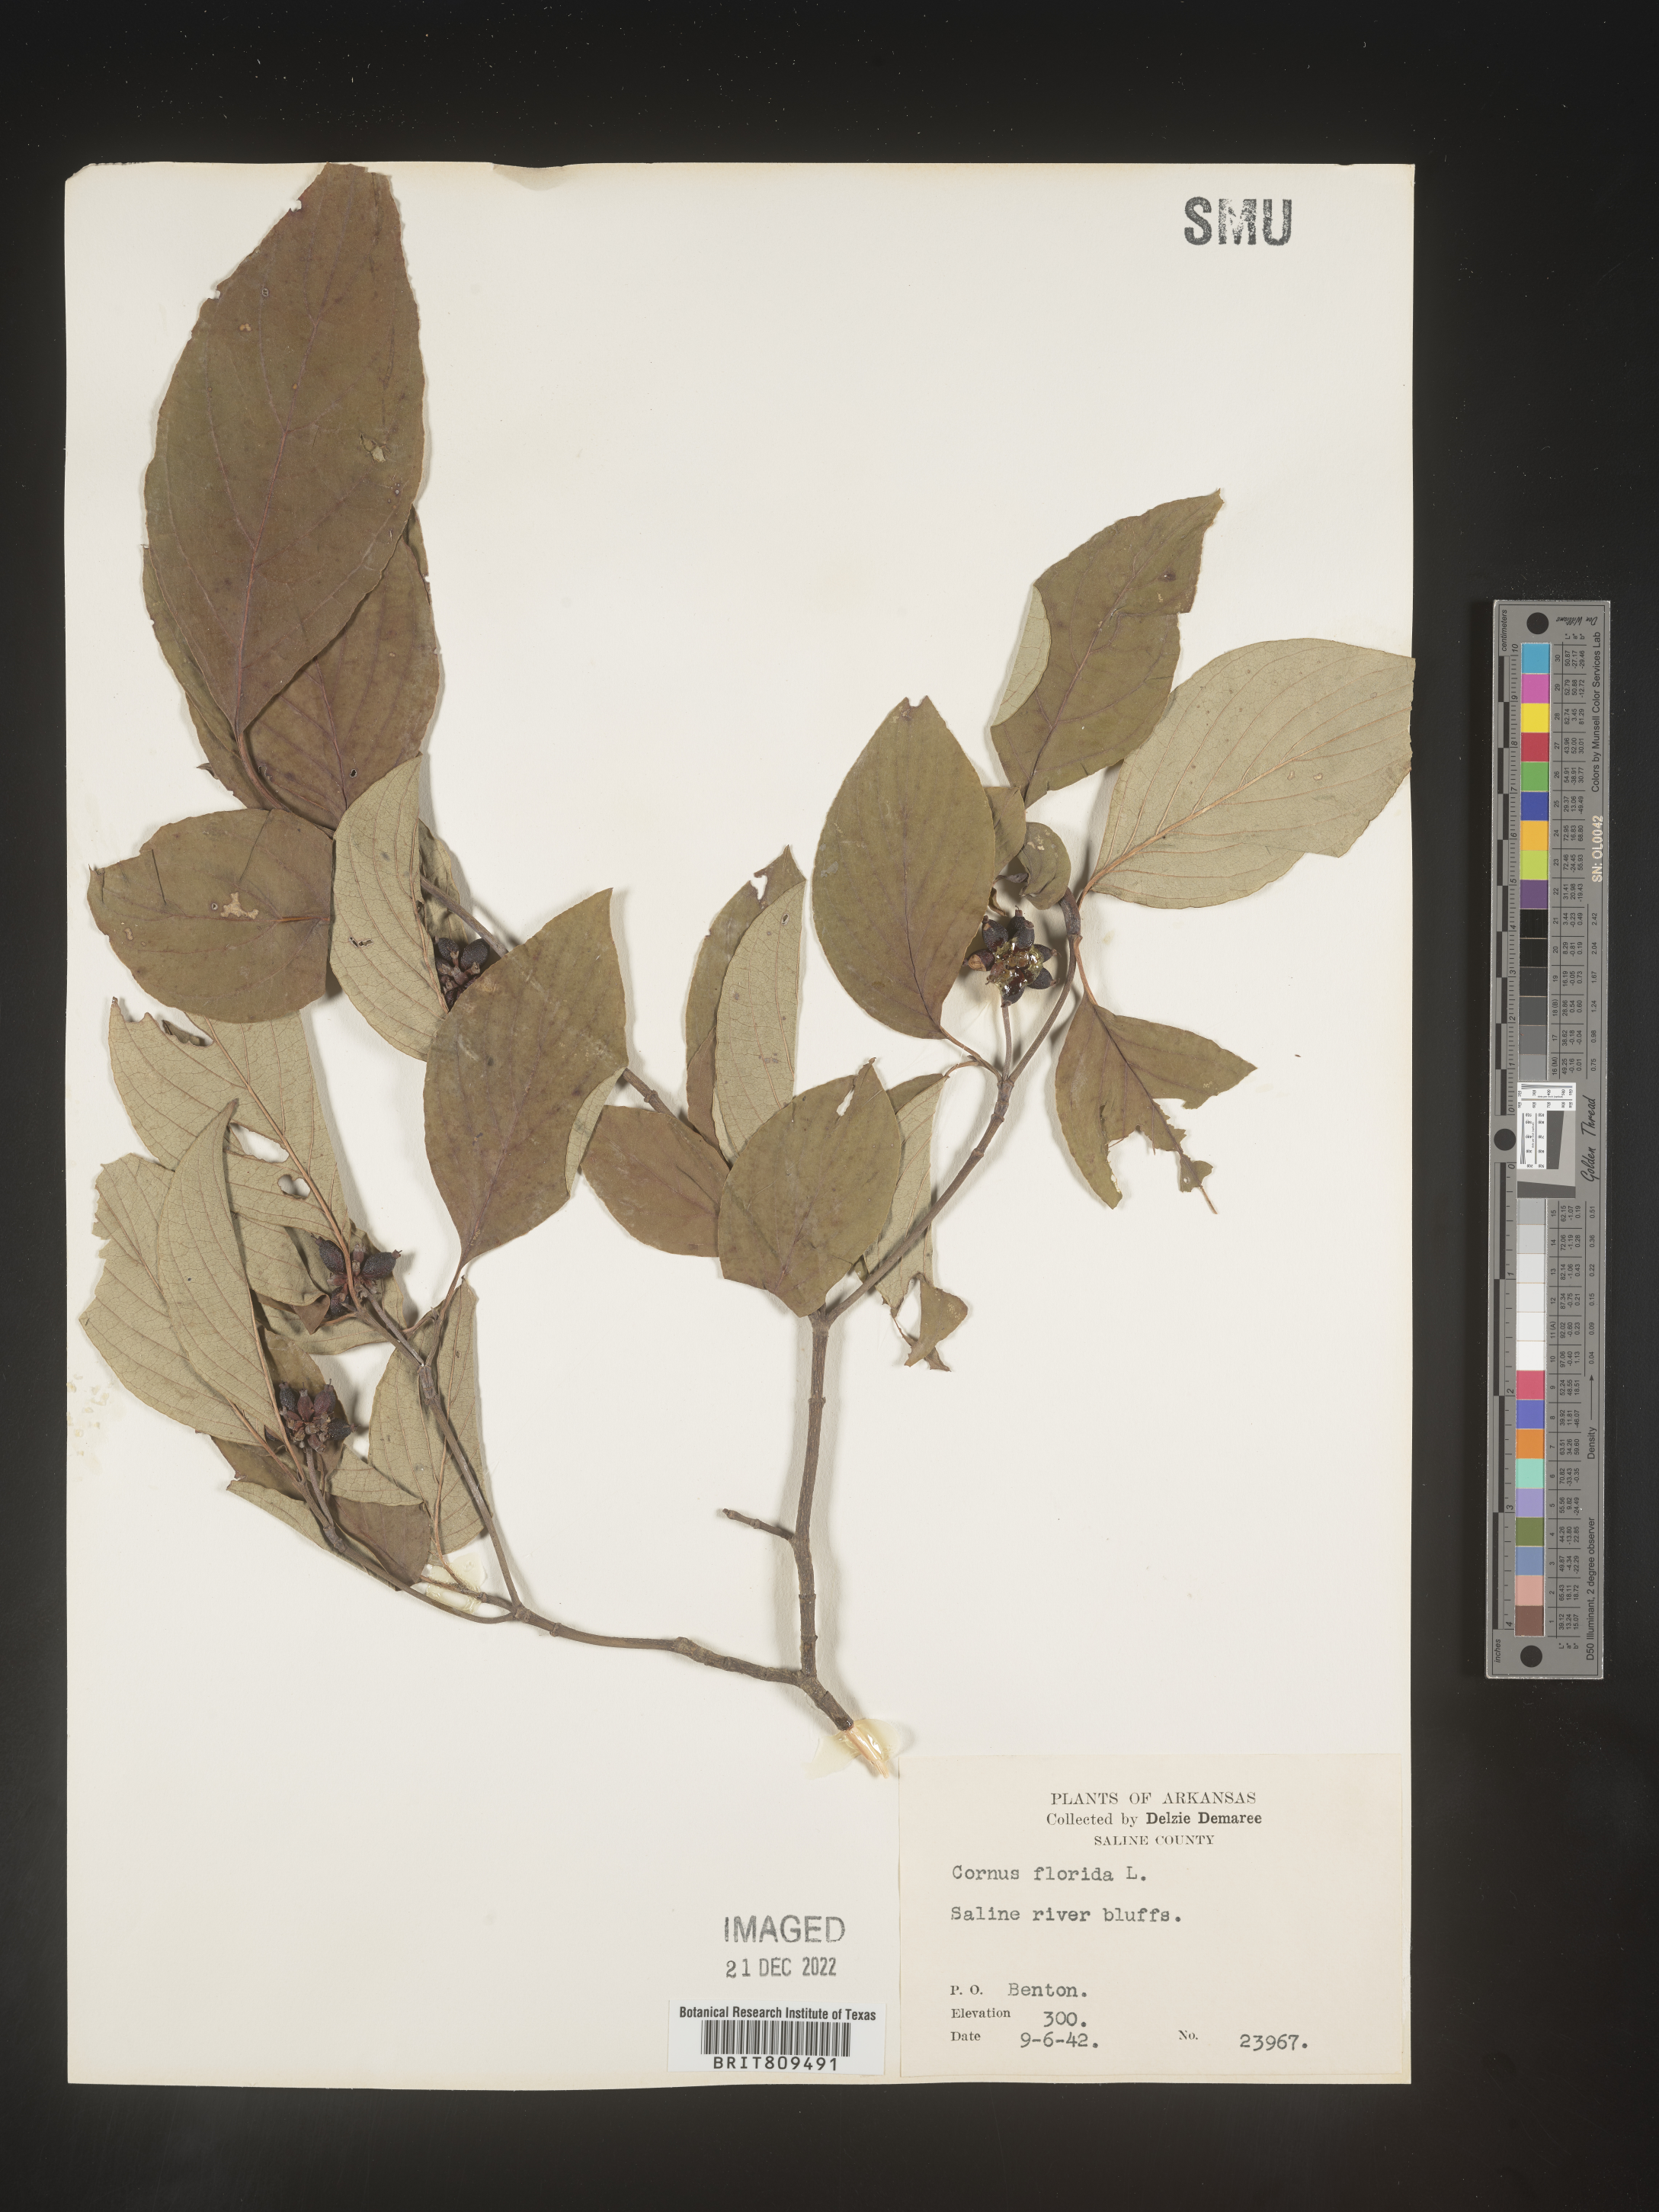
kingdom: Plantae
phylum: Tracheophyta
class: Magnoliopsida
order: Cornales
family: Cornaceae
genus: Cornus
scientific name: Cornus florida
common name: Flowering dogwood
